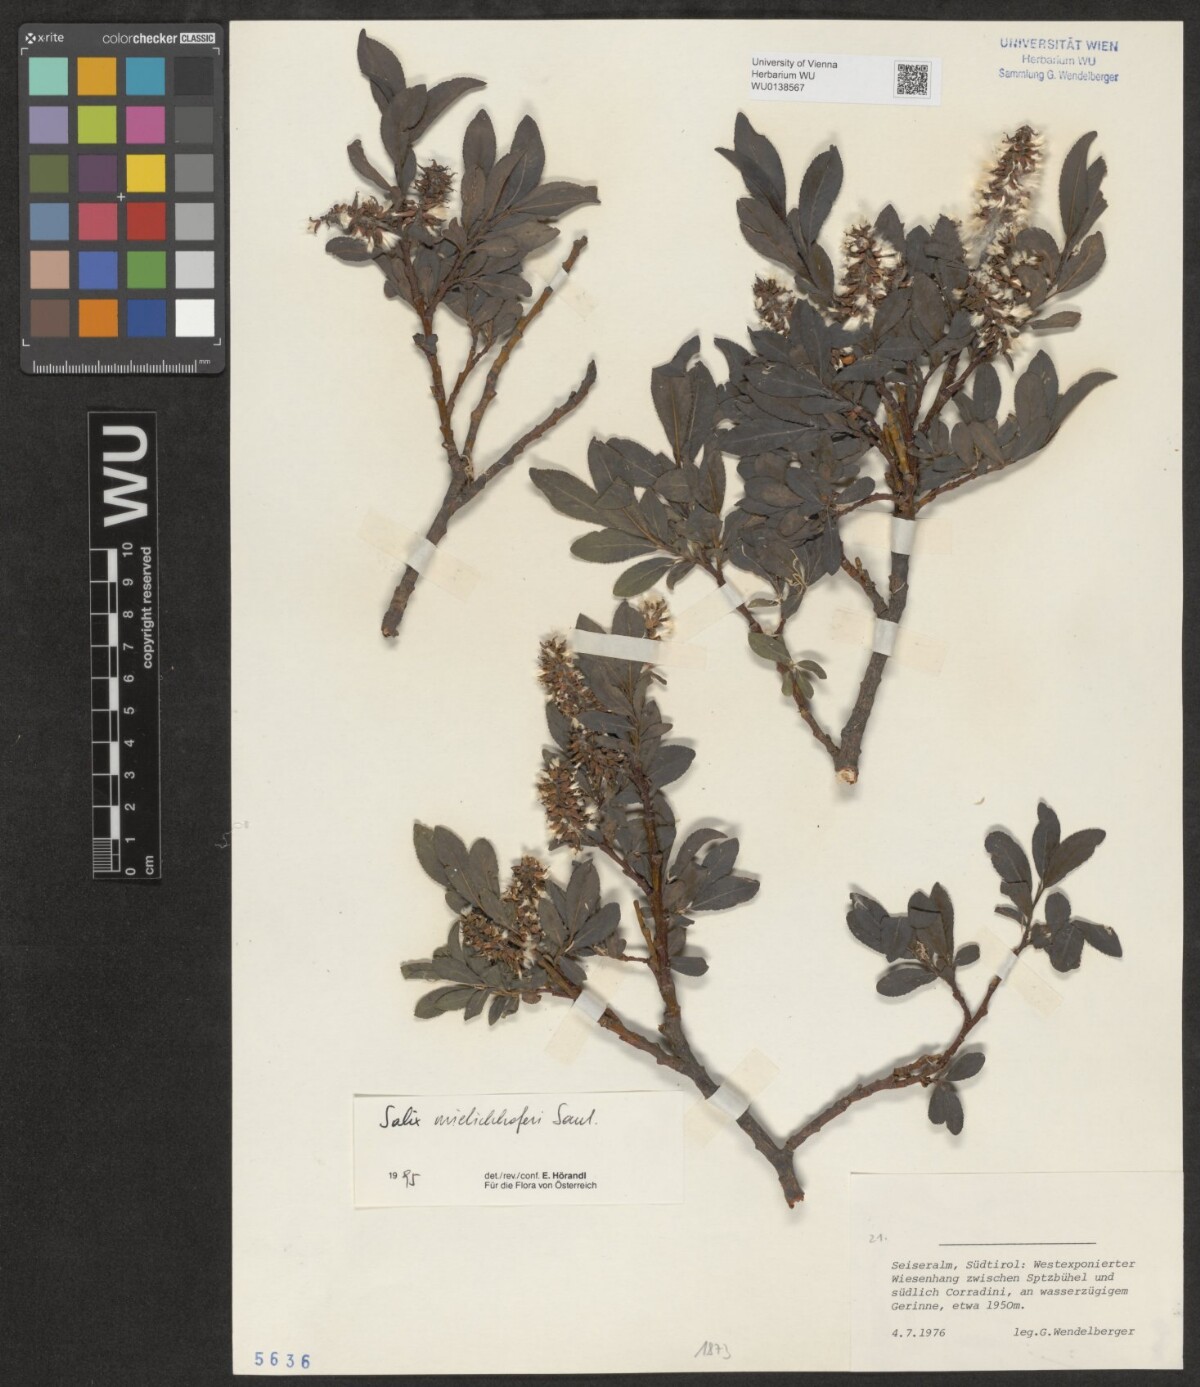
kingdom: Plantae
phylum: Tracheophyta
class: Magnoliopsida
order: Malpighiales
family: Salicaceae
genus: Salix
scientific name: Salix mielichhoferi
